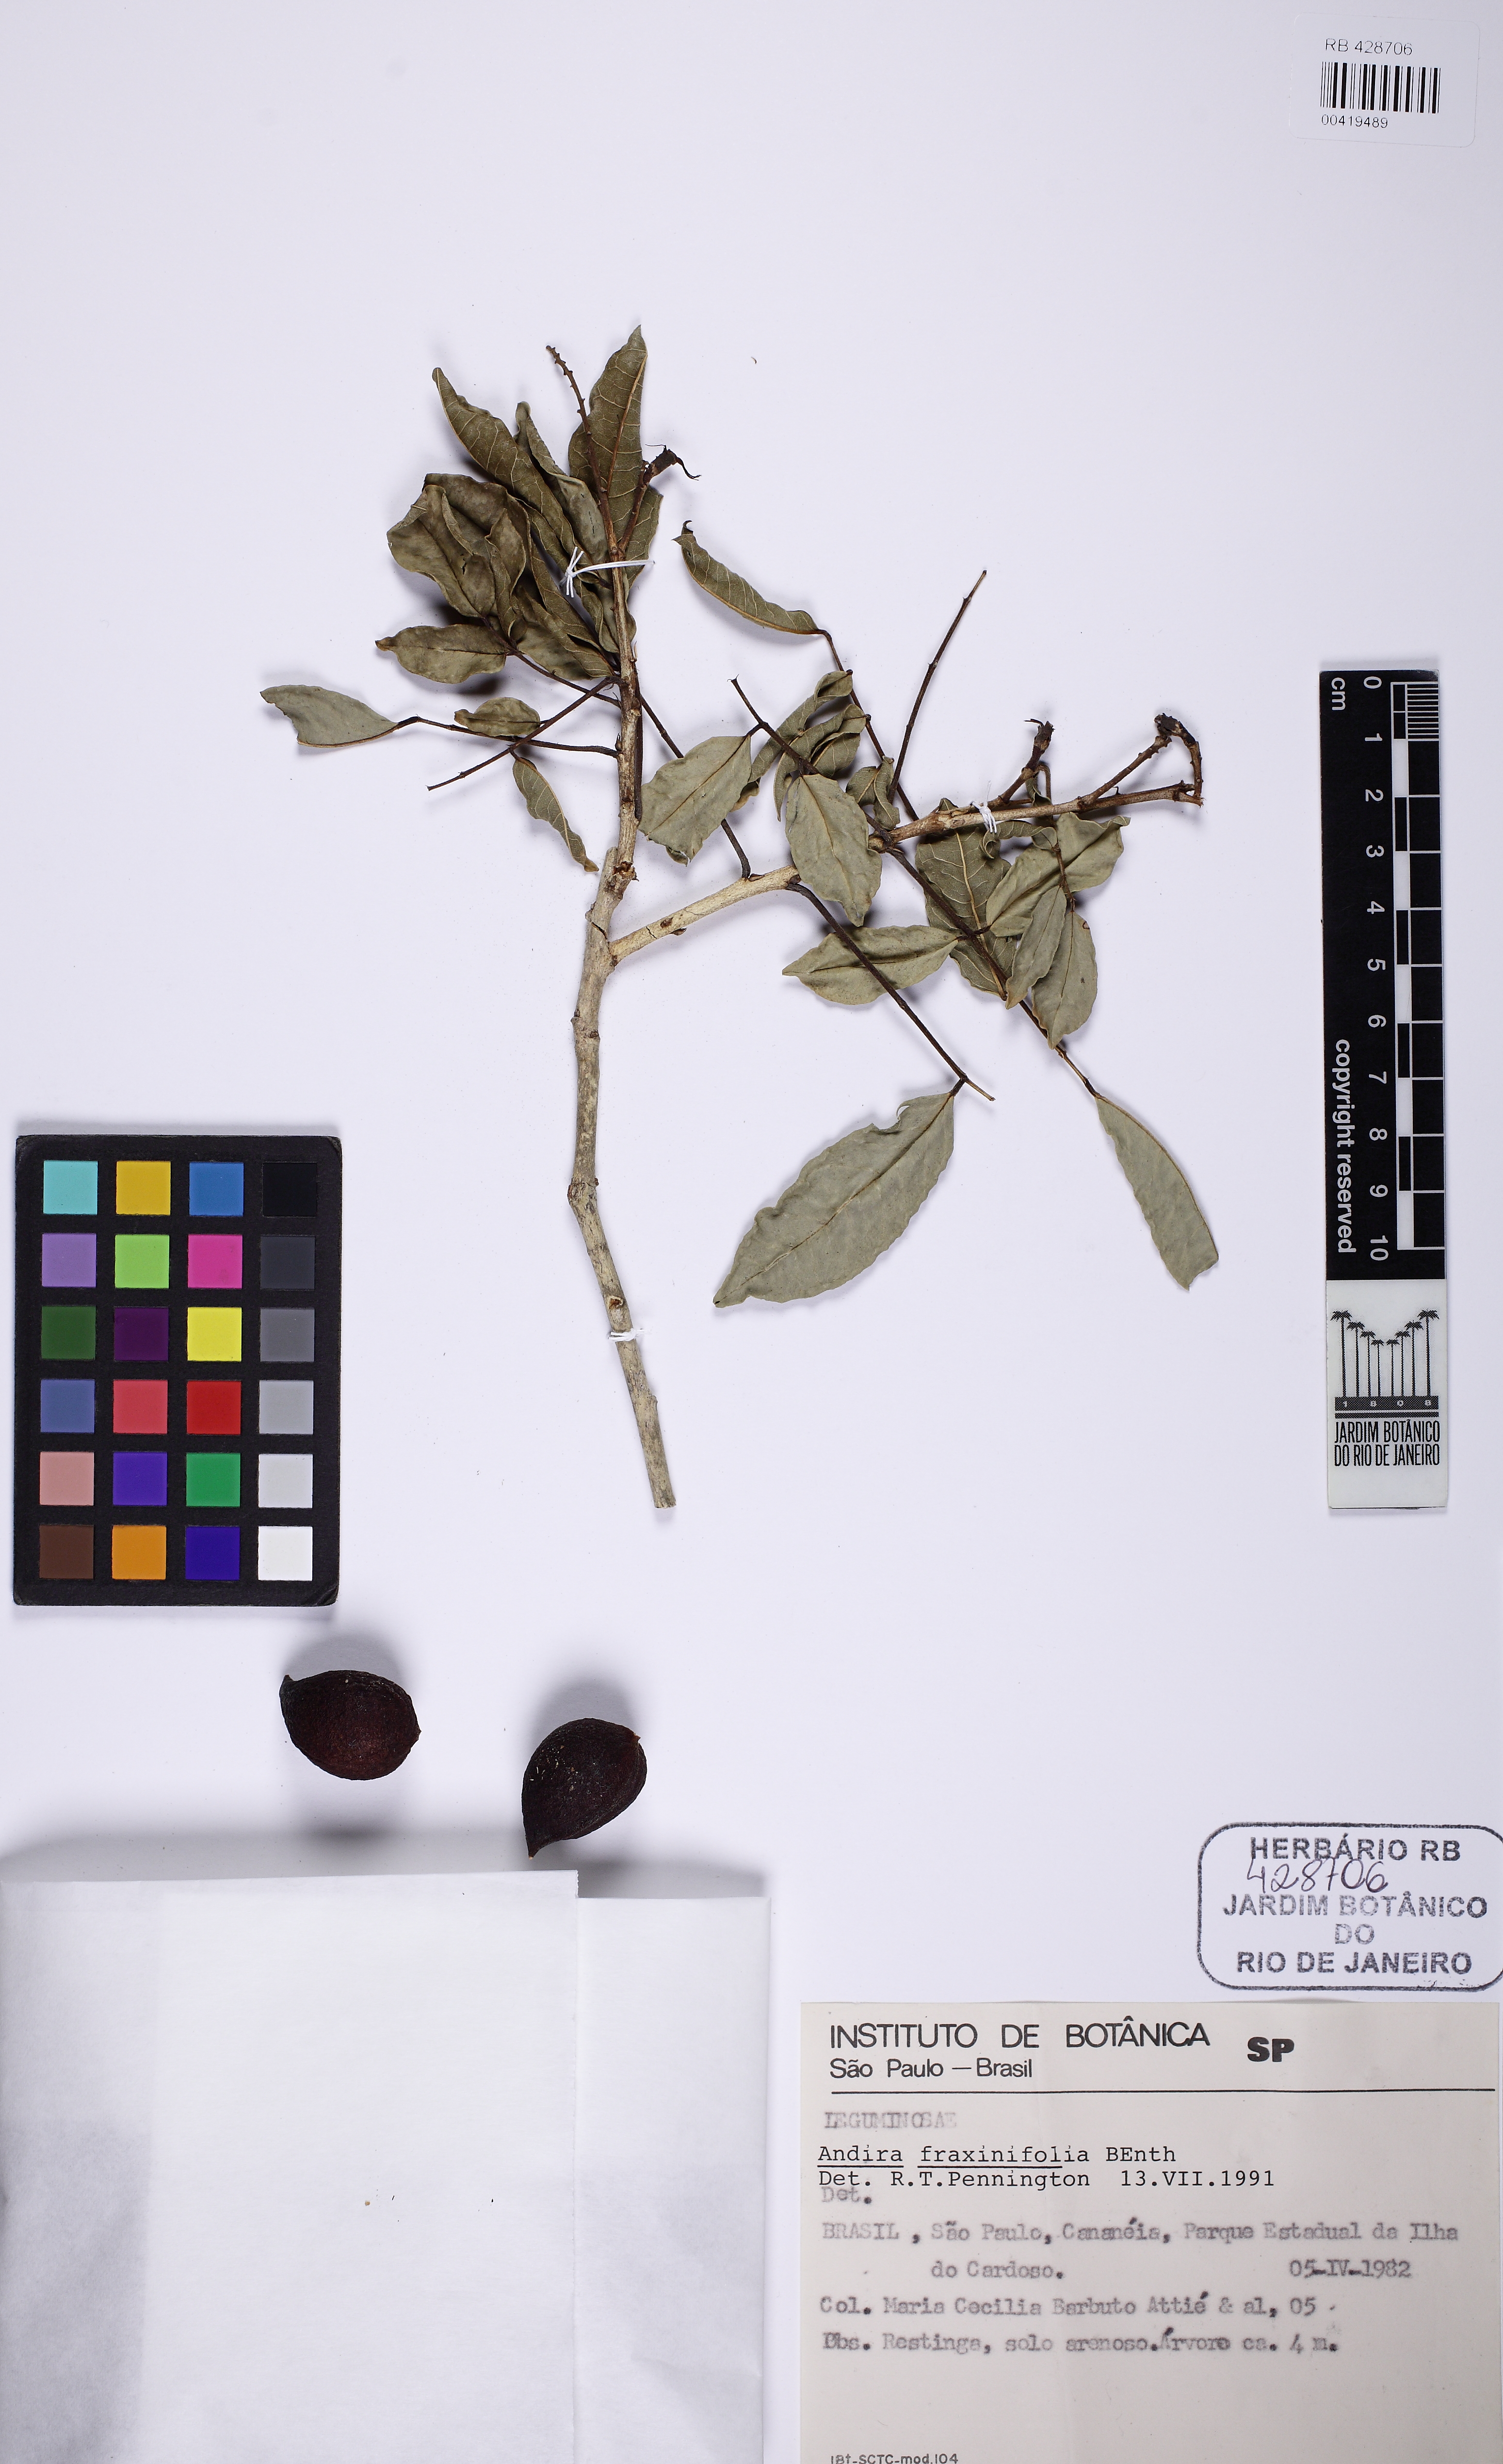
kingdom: Plantae
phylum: Tracheophyta
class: Magnoliopsida
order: Fabales
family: Fabaceae
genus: Andira
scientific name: Andira fraxinifolia
